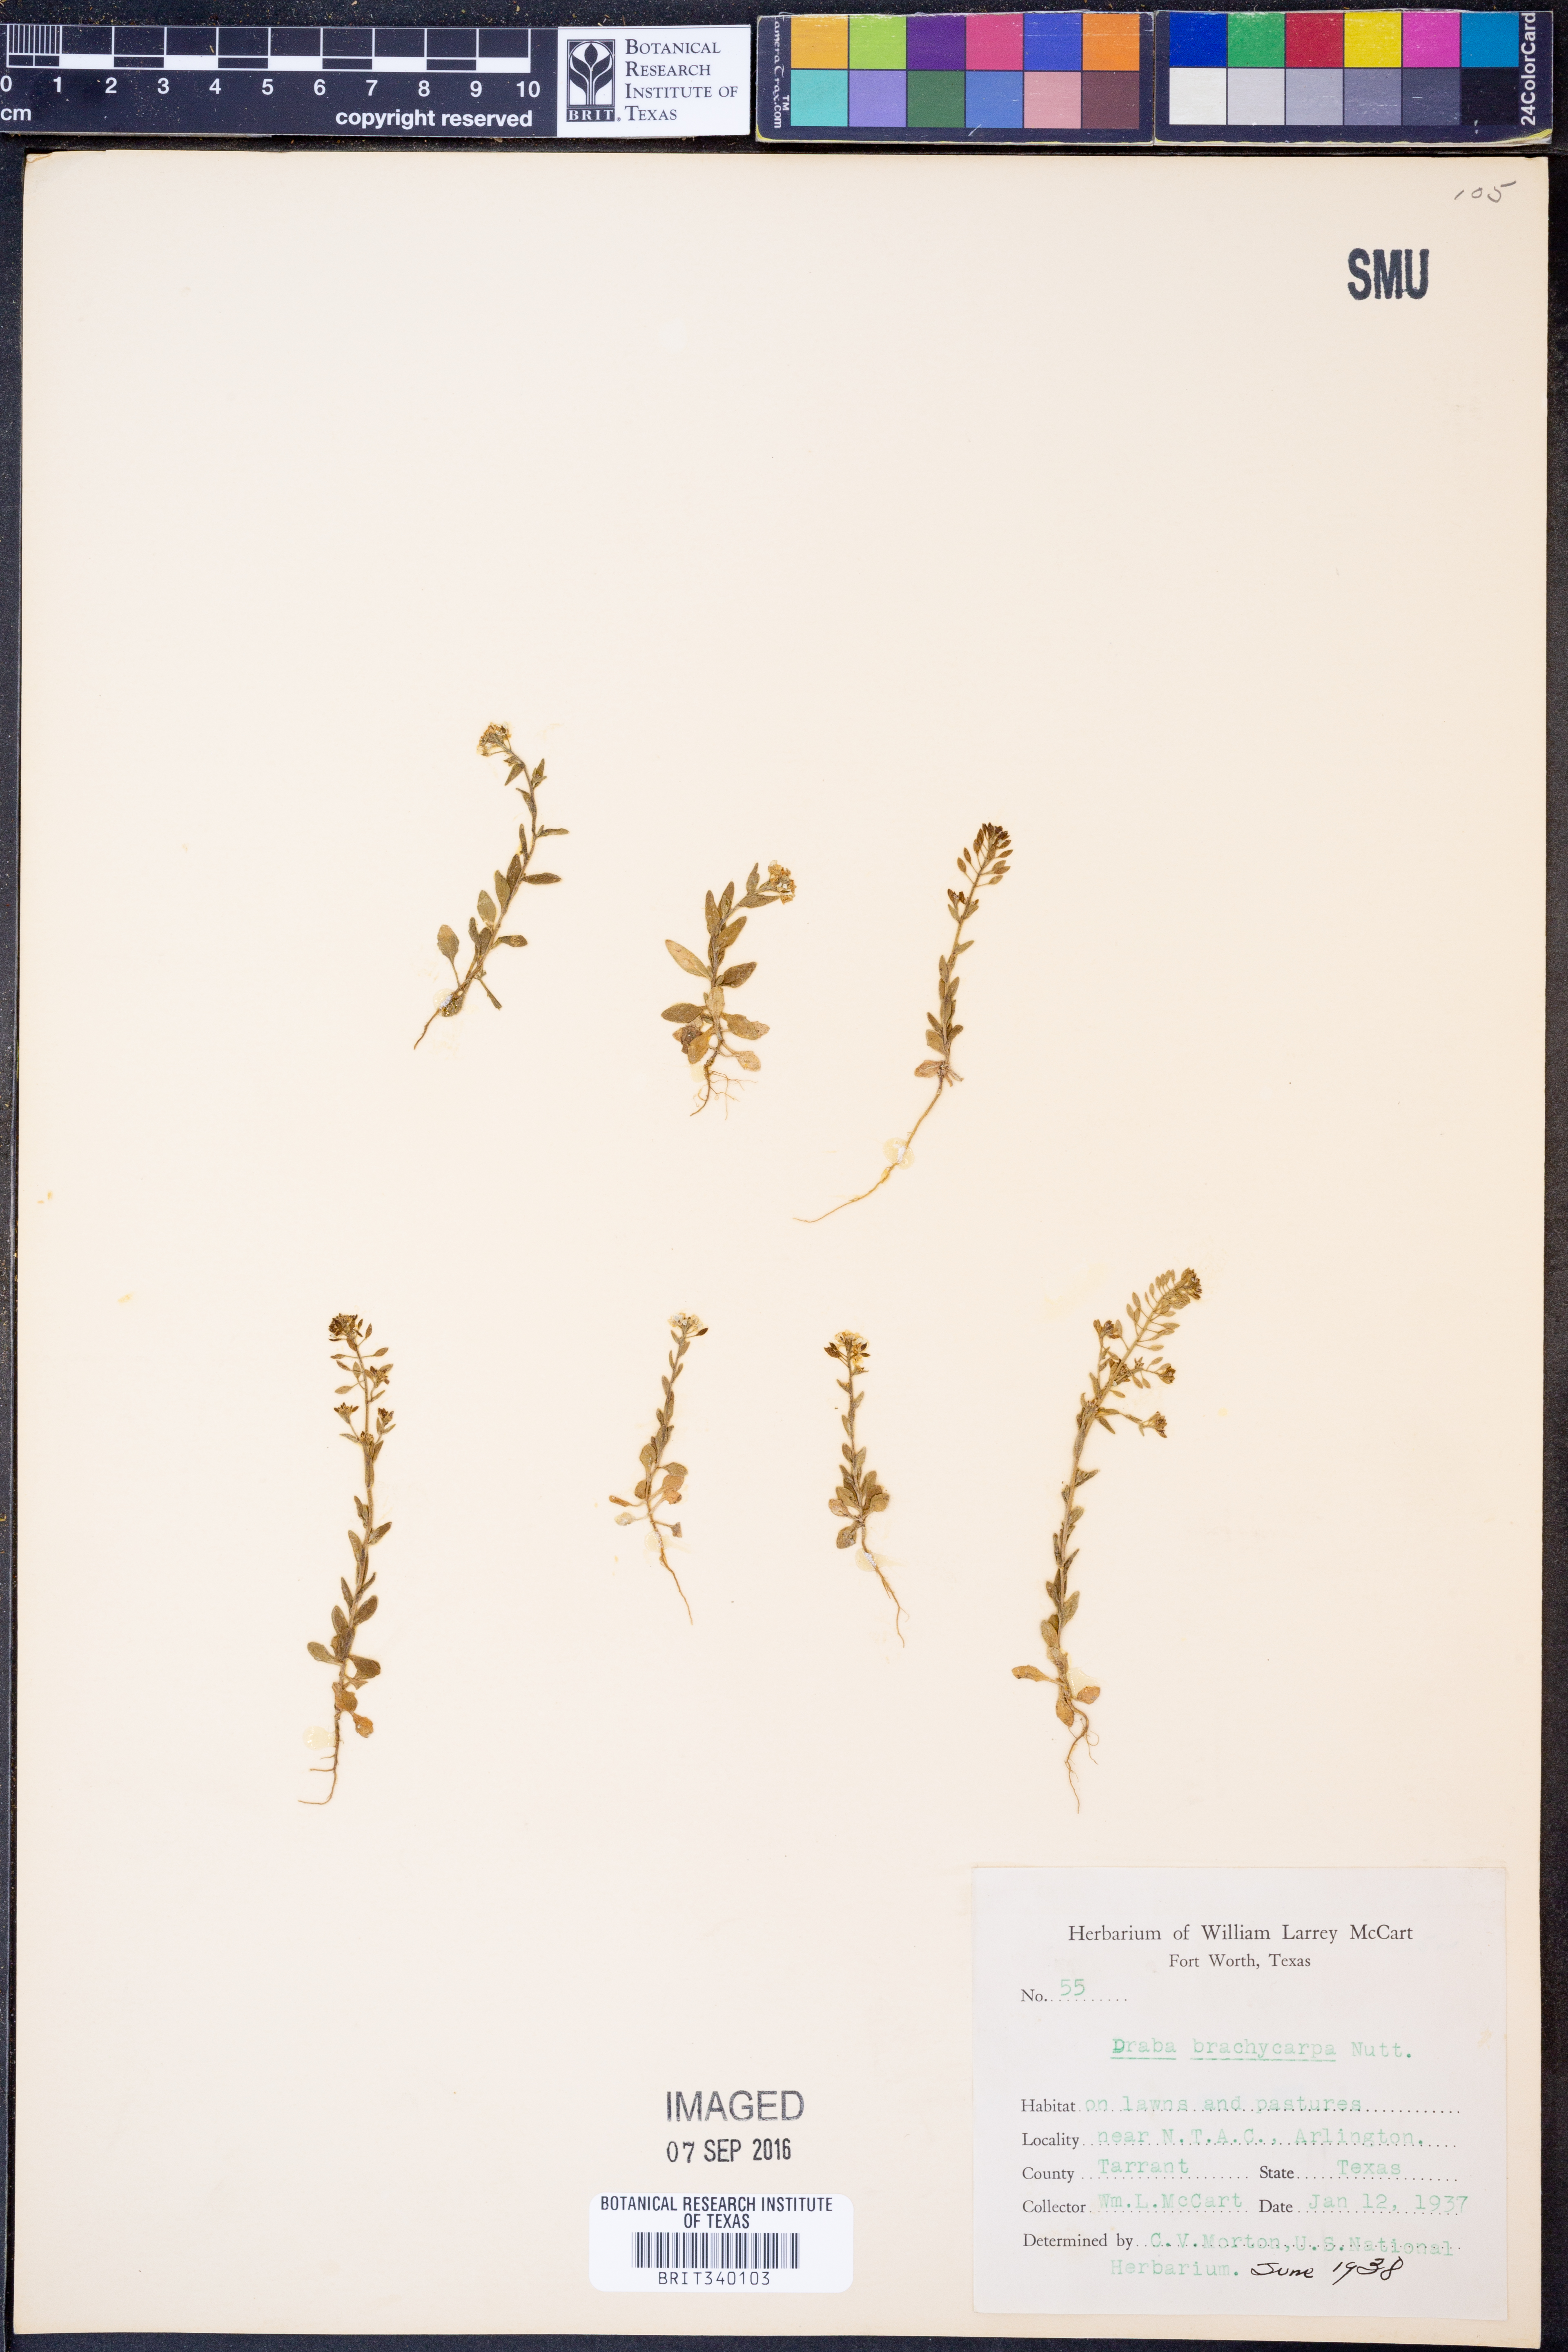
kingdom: Plantae
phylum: Tracheophyta
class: Magnoliopsida
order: Brassicales
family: Brassicaceae
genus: Abdra
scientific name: Abdra brachycarpa
